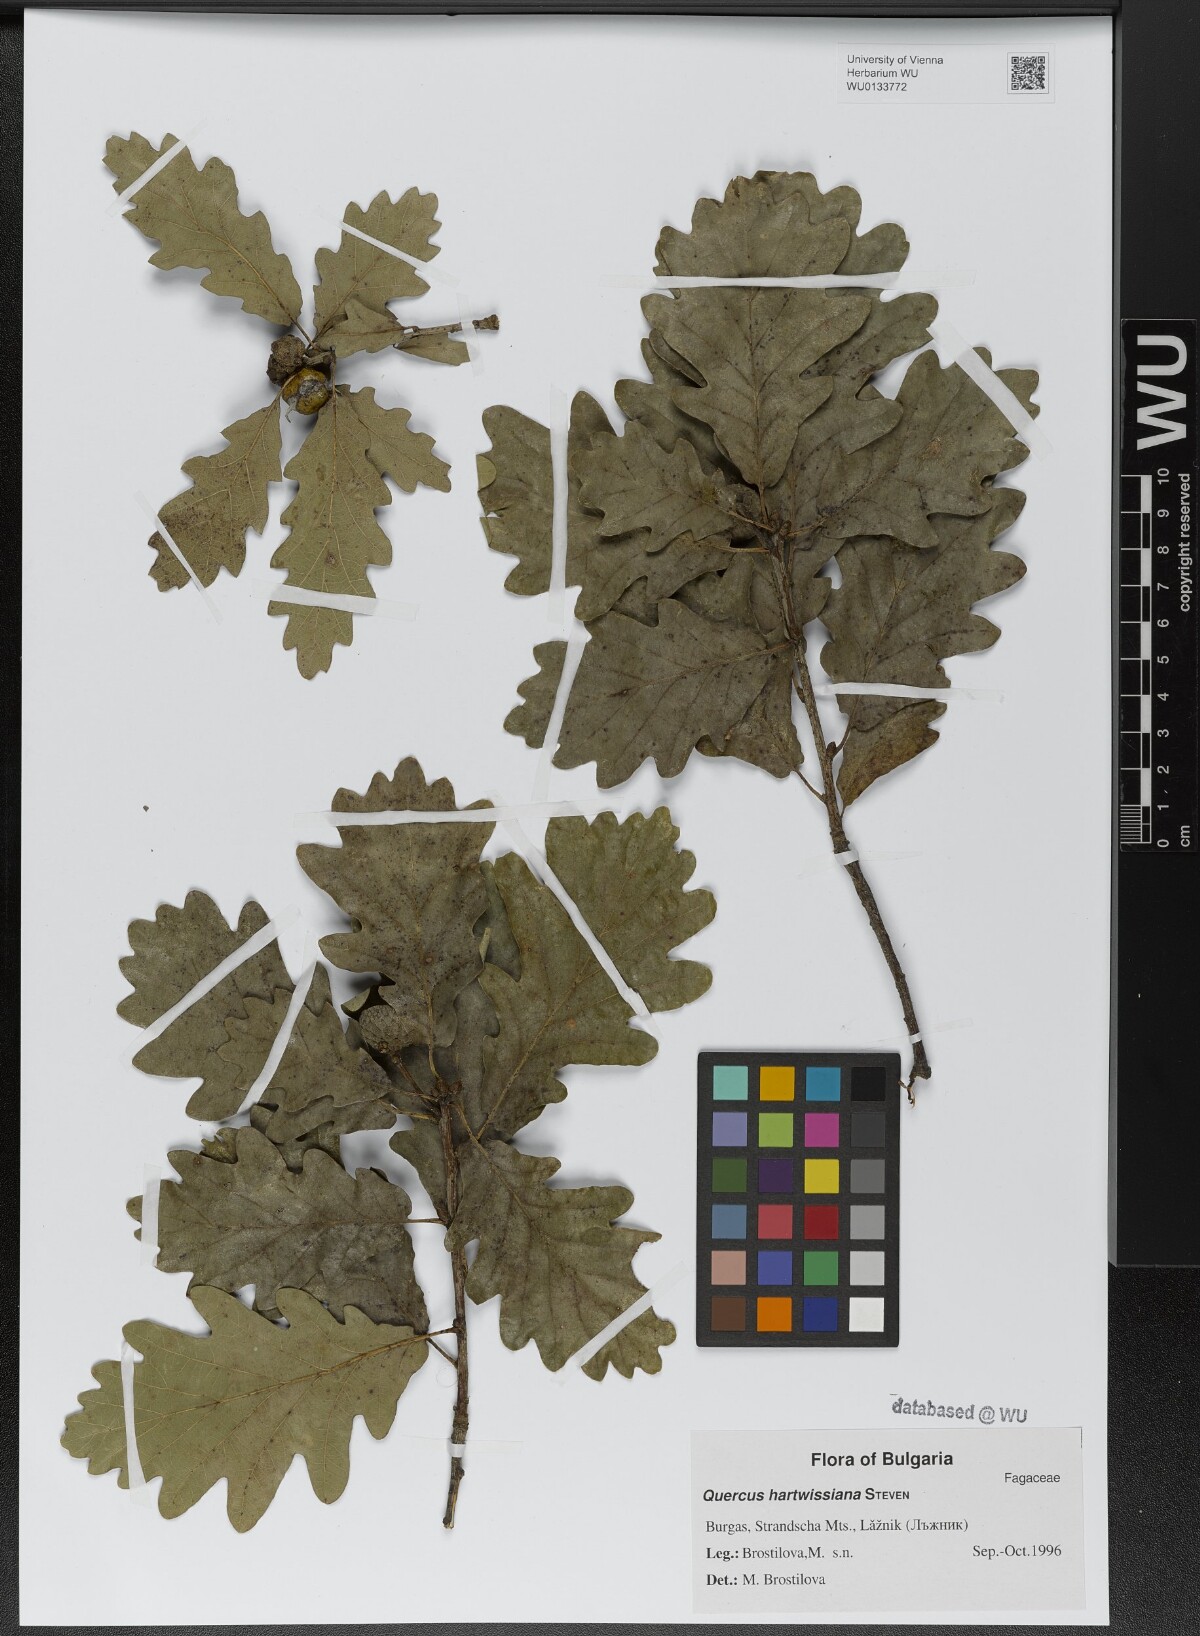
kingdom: Plantae
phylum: Tracheophyta
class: Magnoliopsida
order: Fagales
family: Fagaceae
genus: Quercus
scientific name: Quercus hartwissiana
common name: Strandzha oak
